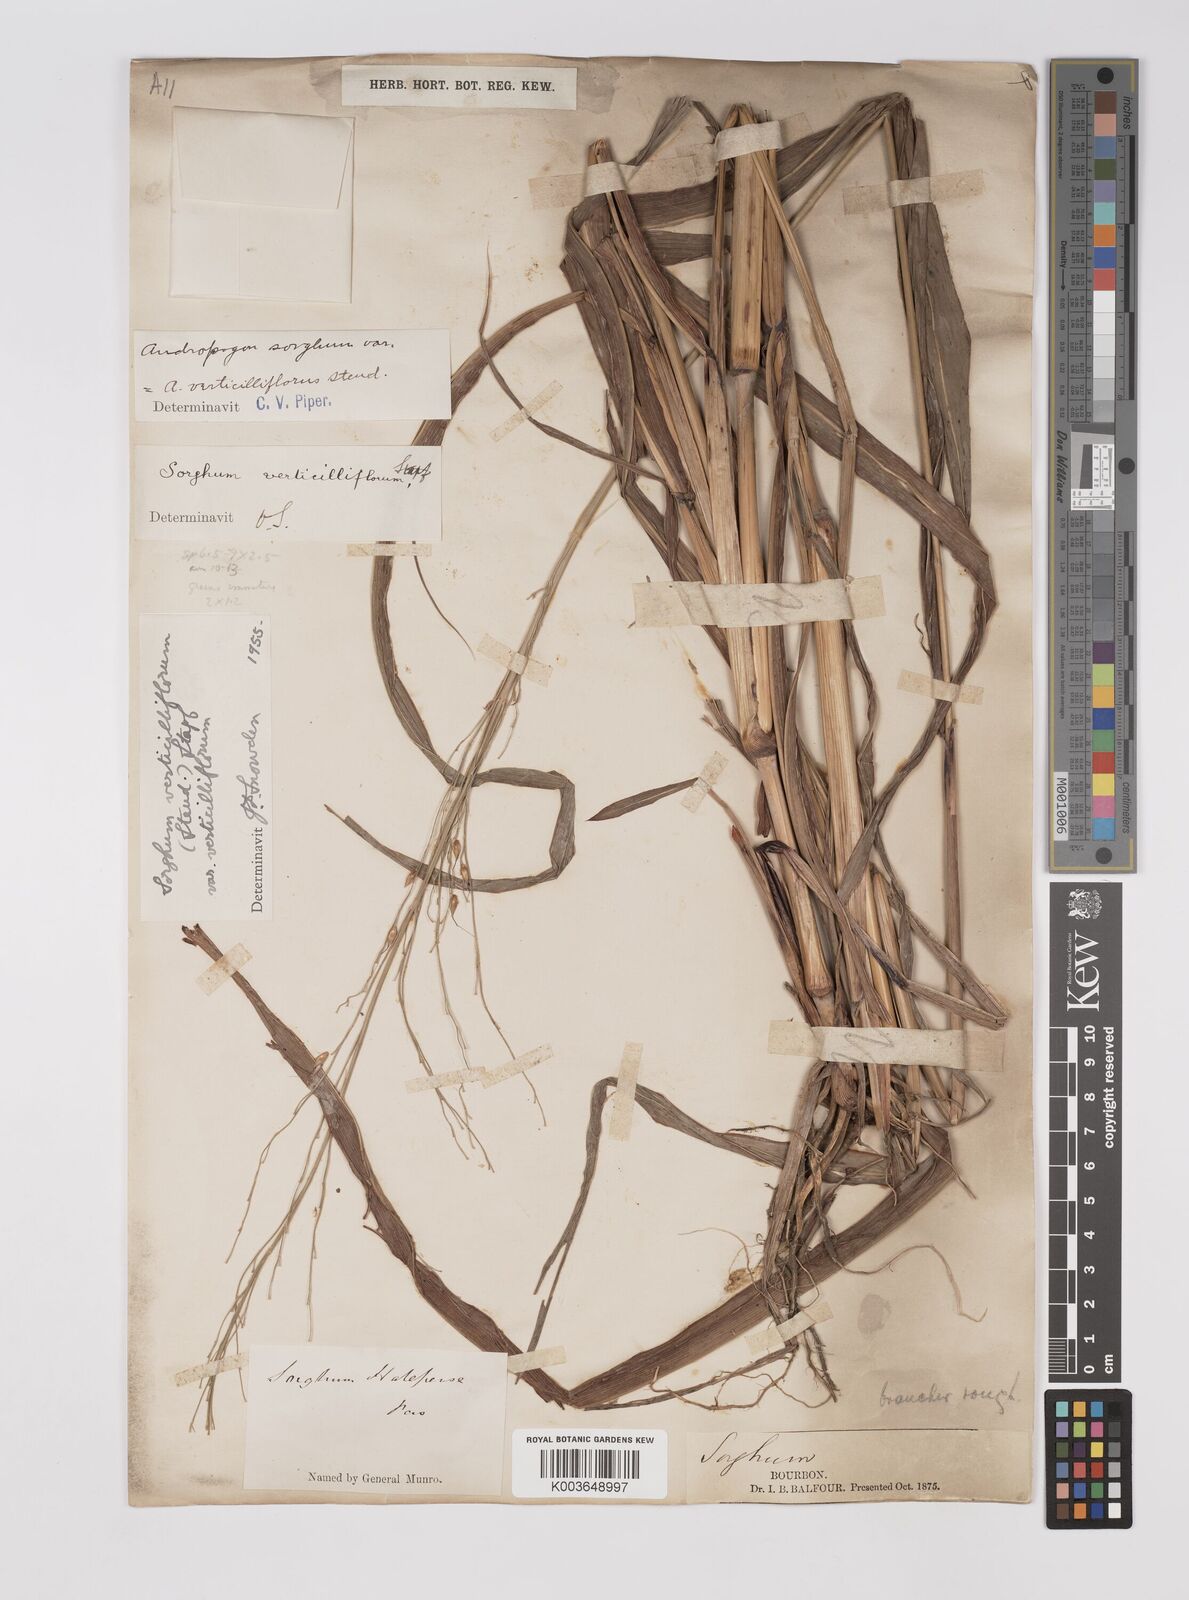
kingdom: Plantae
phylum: Tracheophyta
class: Liliopsida
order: Poales
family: Poaceae
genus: Sorghum
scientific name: Sorghum arundinaceum
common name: Sorghum
